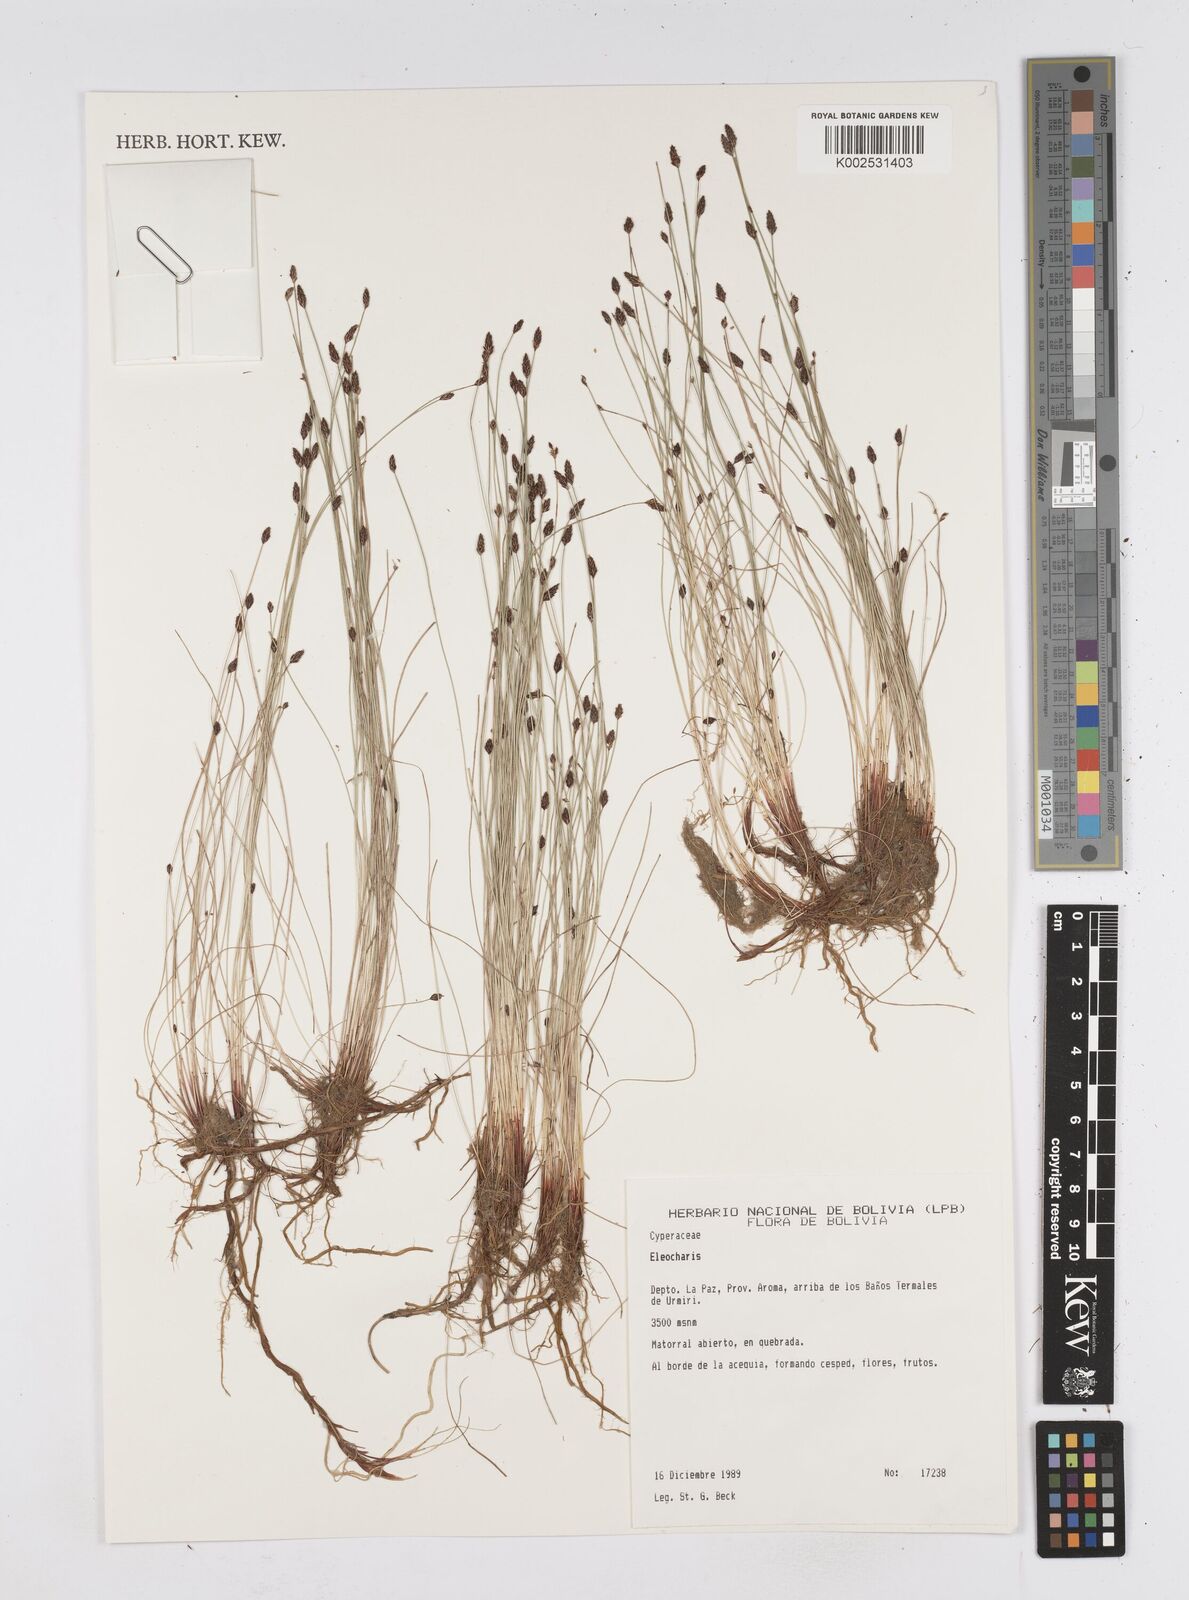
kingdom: Plantae
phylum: Tracheophyta
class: Liliopsida
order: Poales
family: Cyperaceae
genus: Eleocharis
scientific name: Eleocharis
